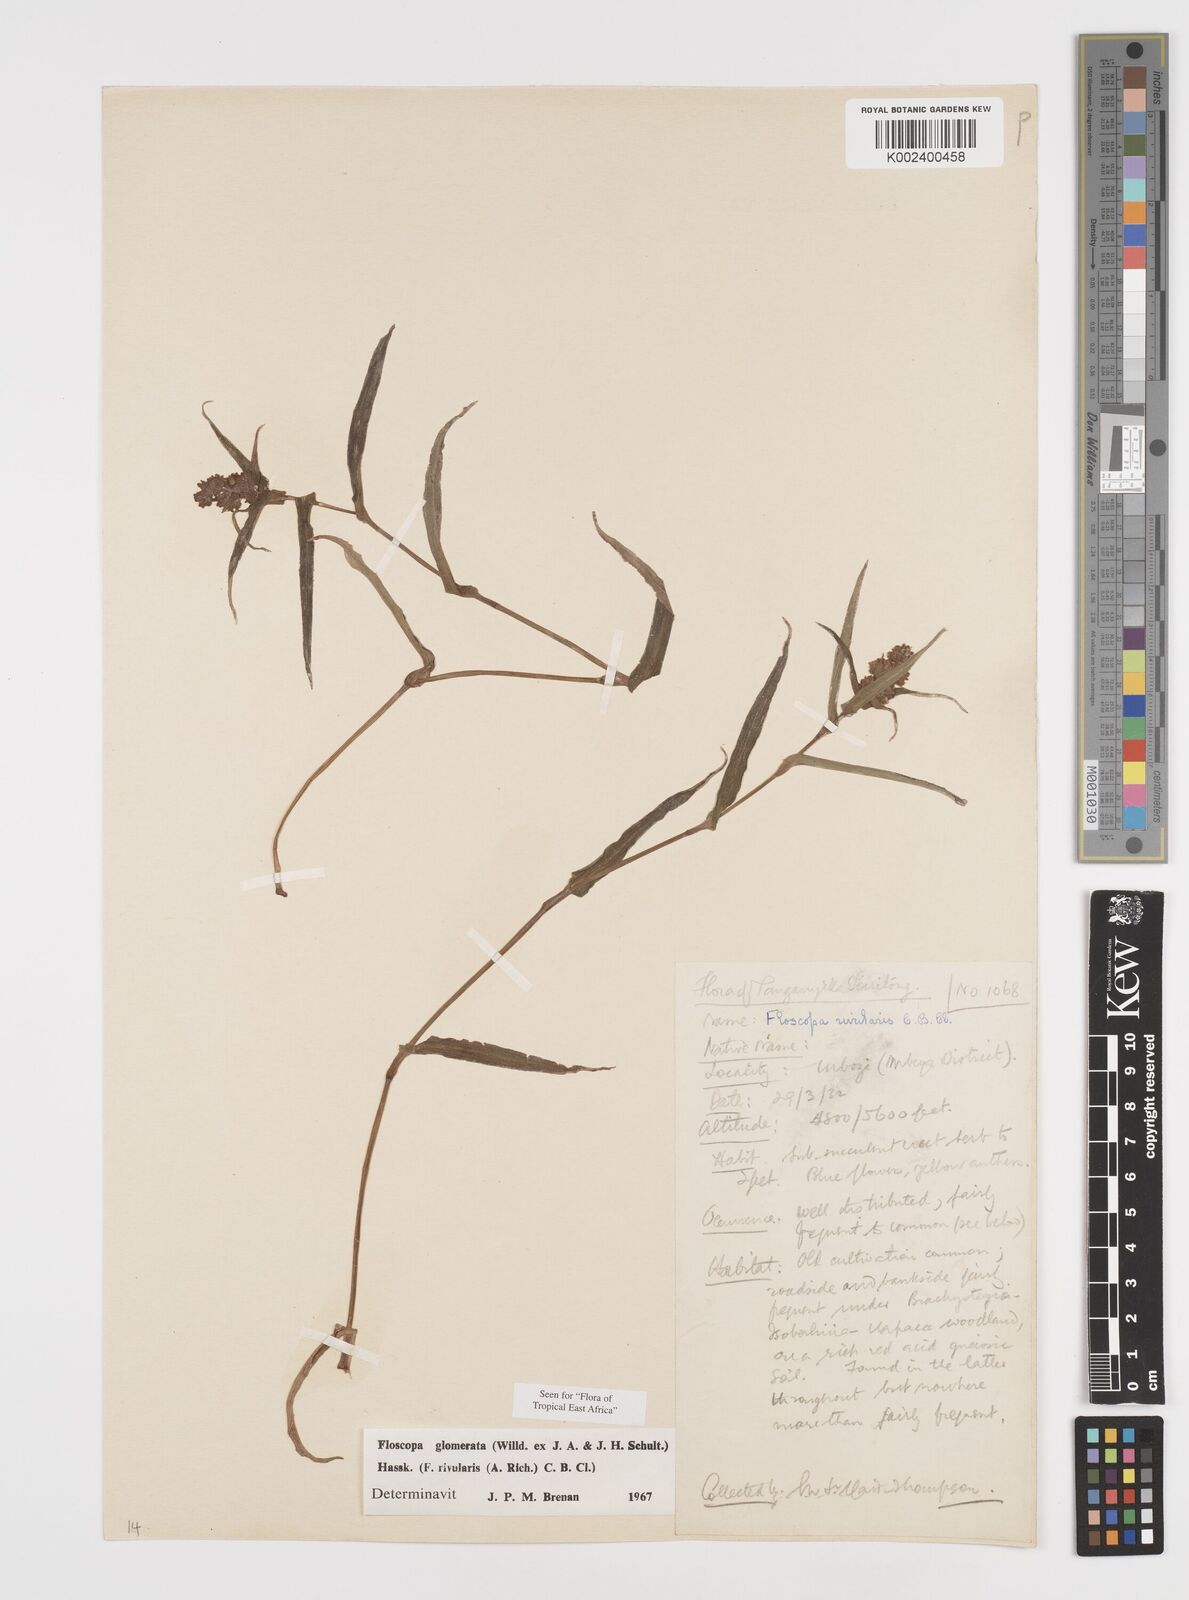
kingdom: Plantae
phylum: Tracheophyta
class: Liliopsida
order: Commelinales
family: Commelinaceae
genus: Floscopa
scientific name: Floscopa glomerata
